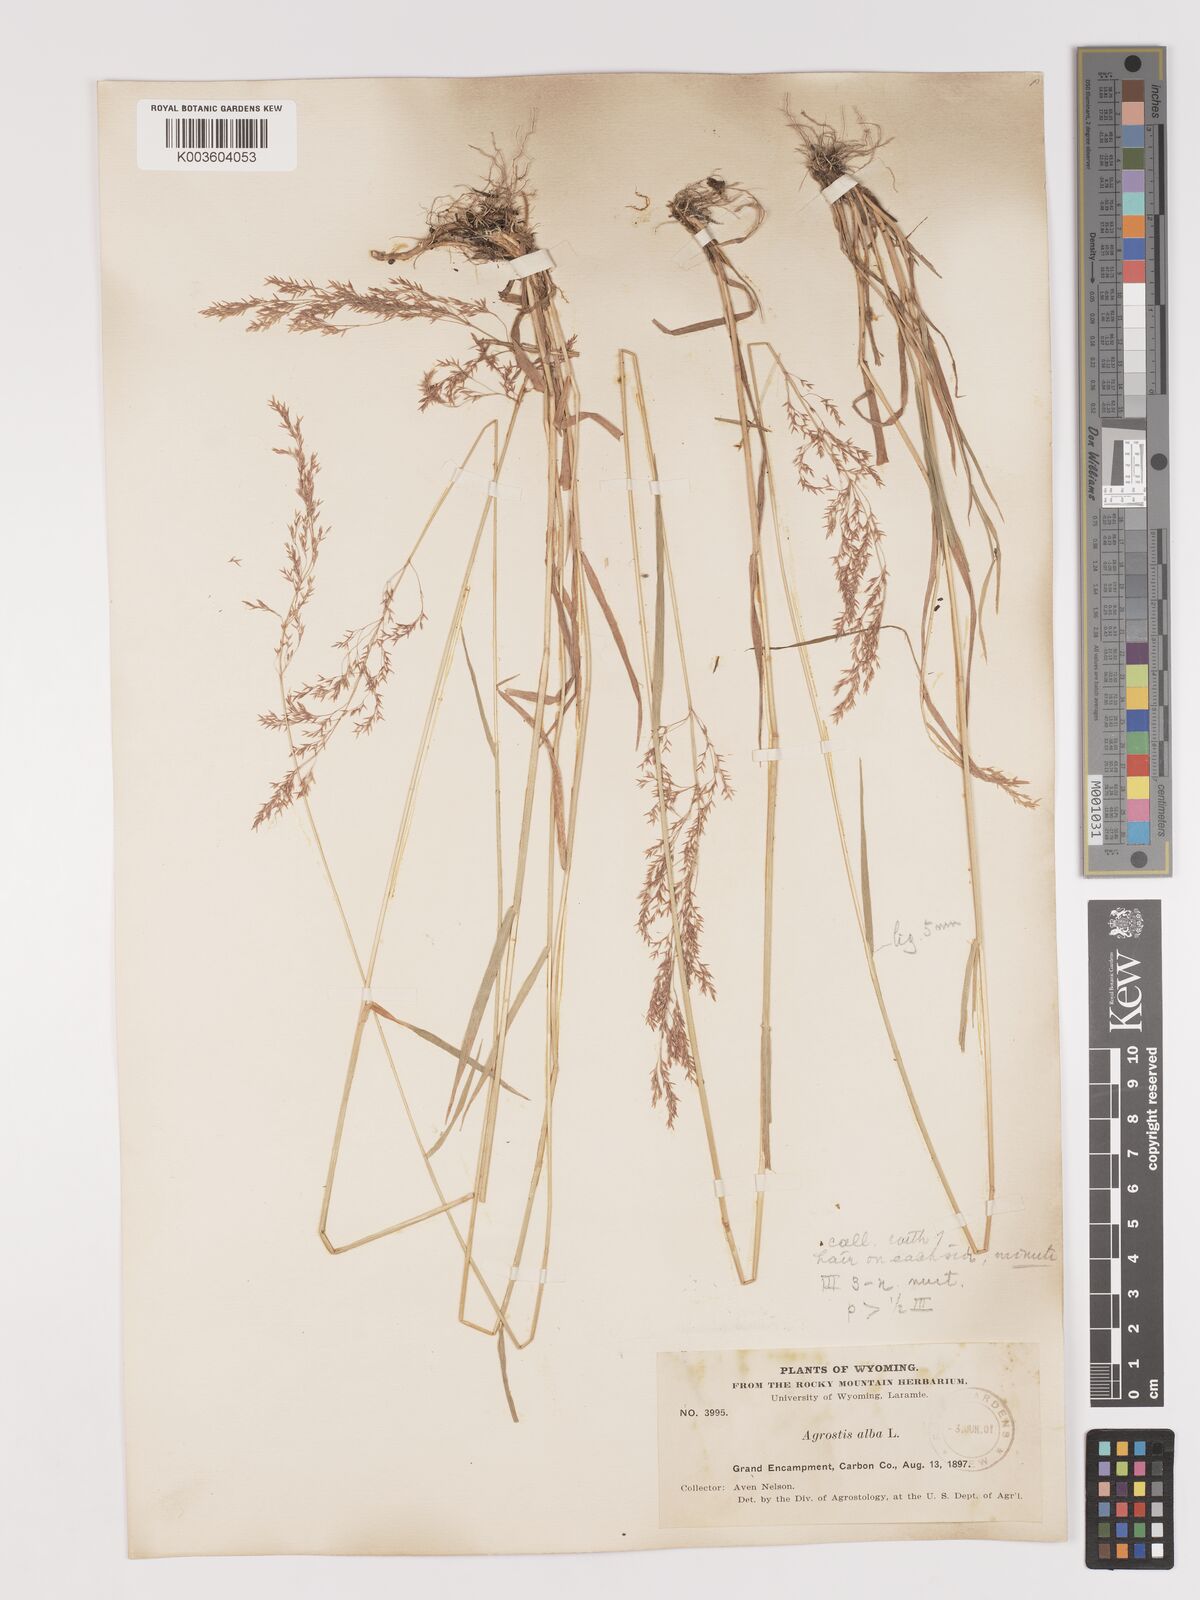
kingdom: Plantae
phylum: Tracheophyta
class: Liliopsida
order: Poales
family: Poaceae
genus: Agrostis
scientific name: Agrostis gigantea
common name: Black bent
